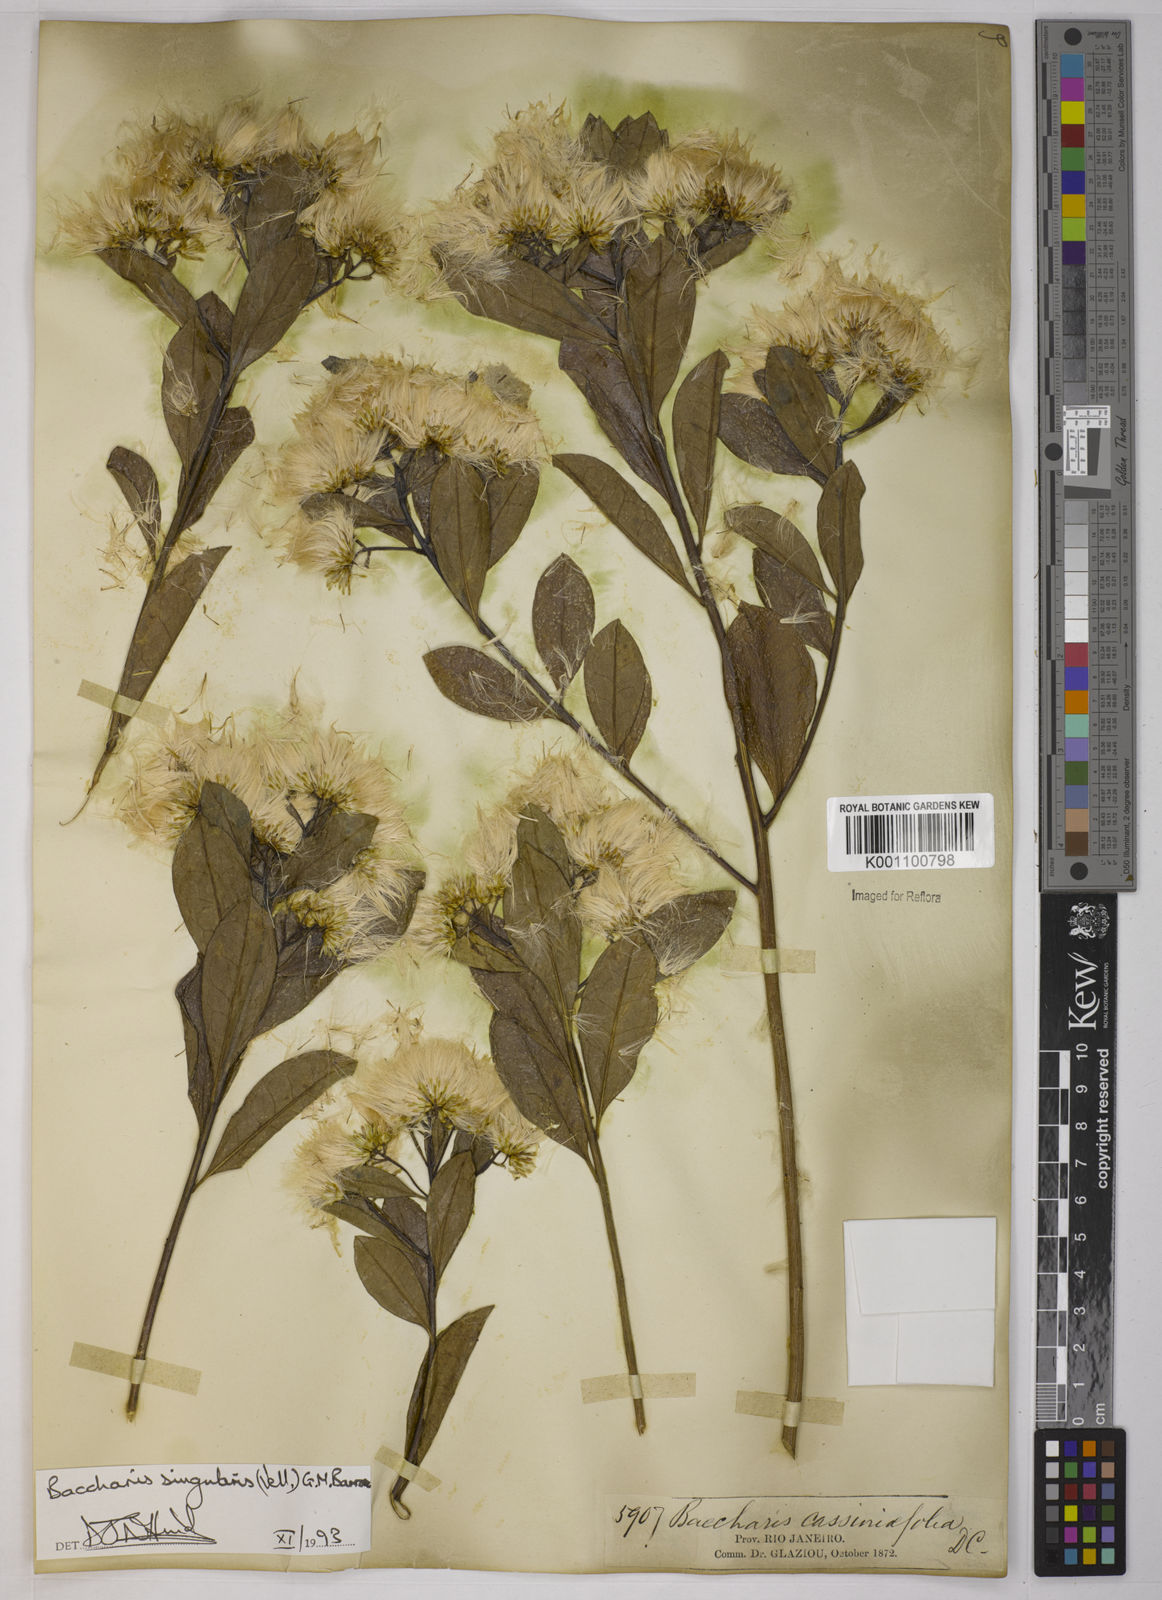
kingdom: Plantae
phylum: Tracheophyta
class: Magnoliopsida
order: Asterales
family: Asteraceae
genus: Baccharis
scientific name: Baccharis
